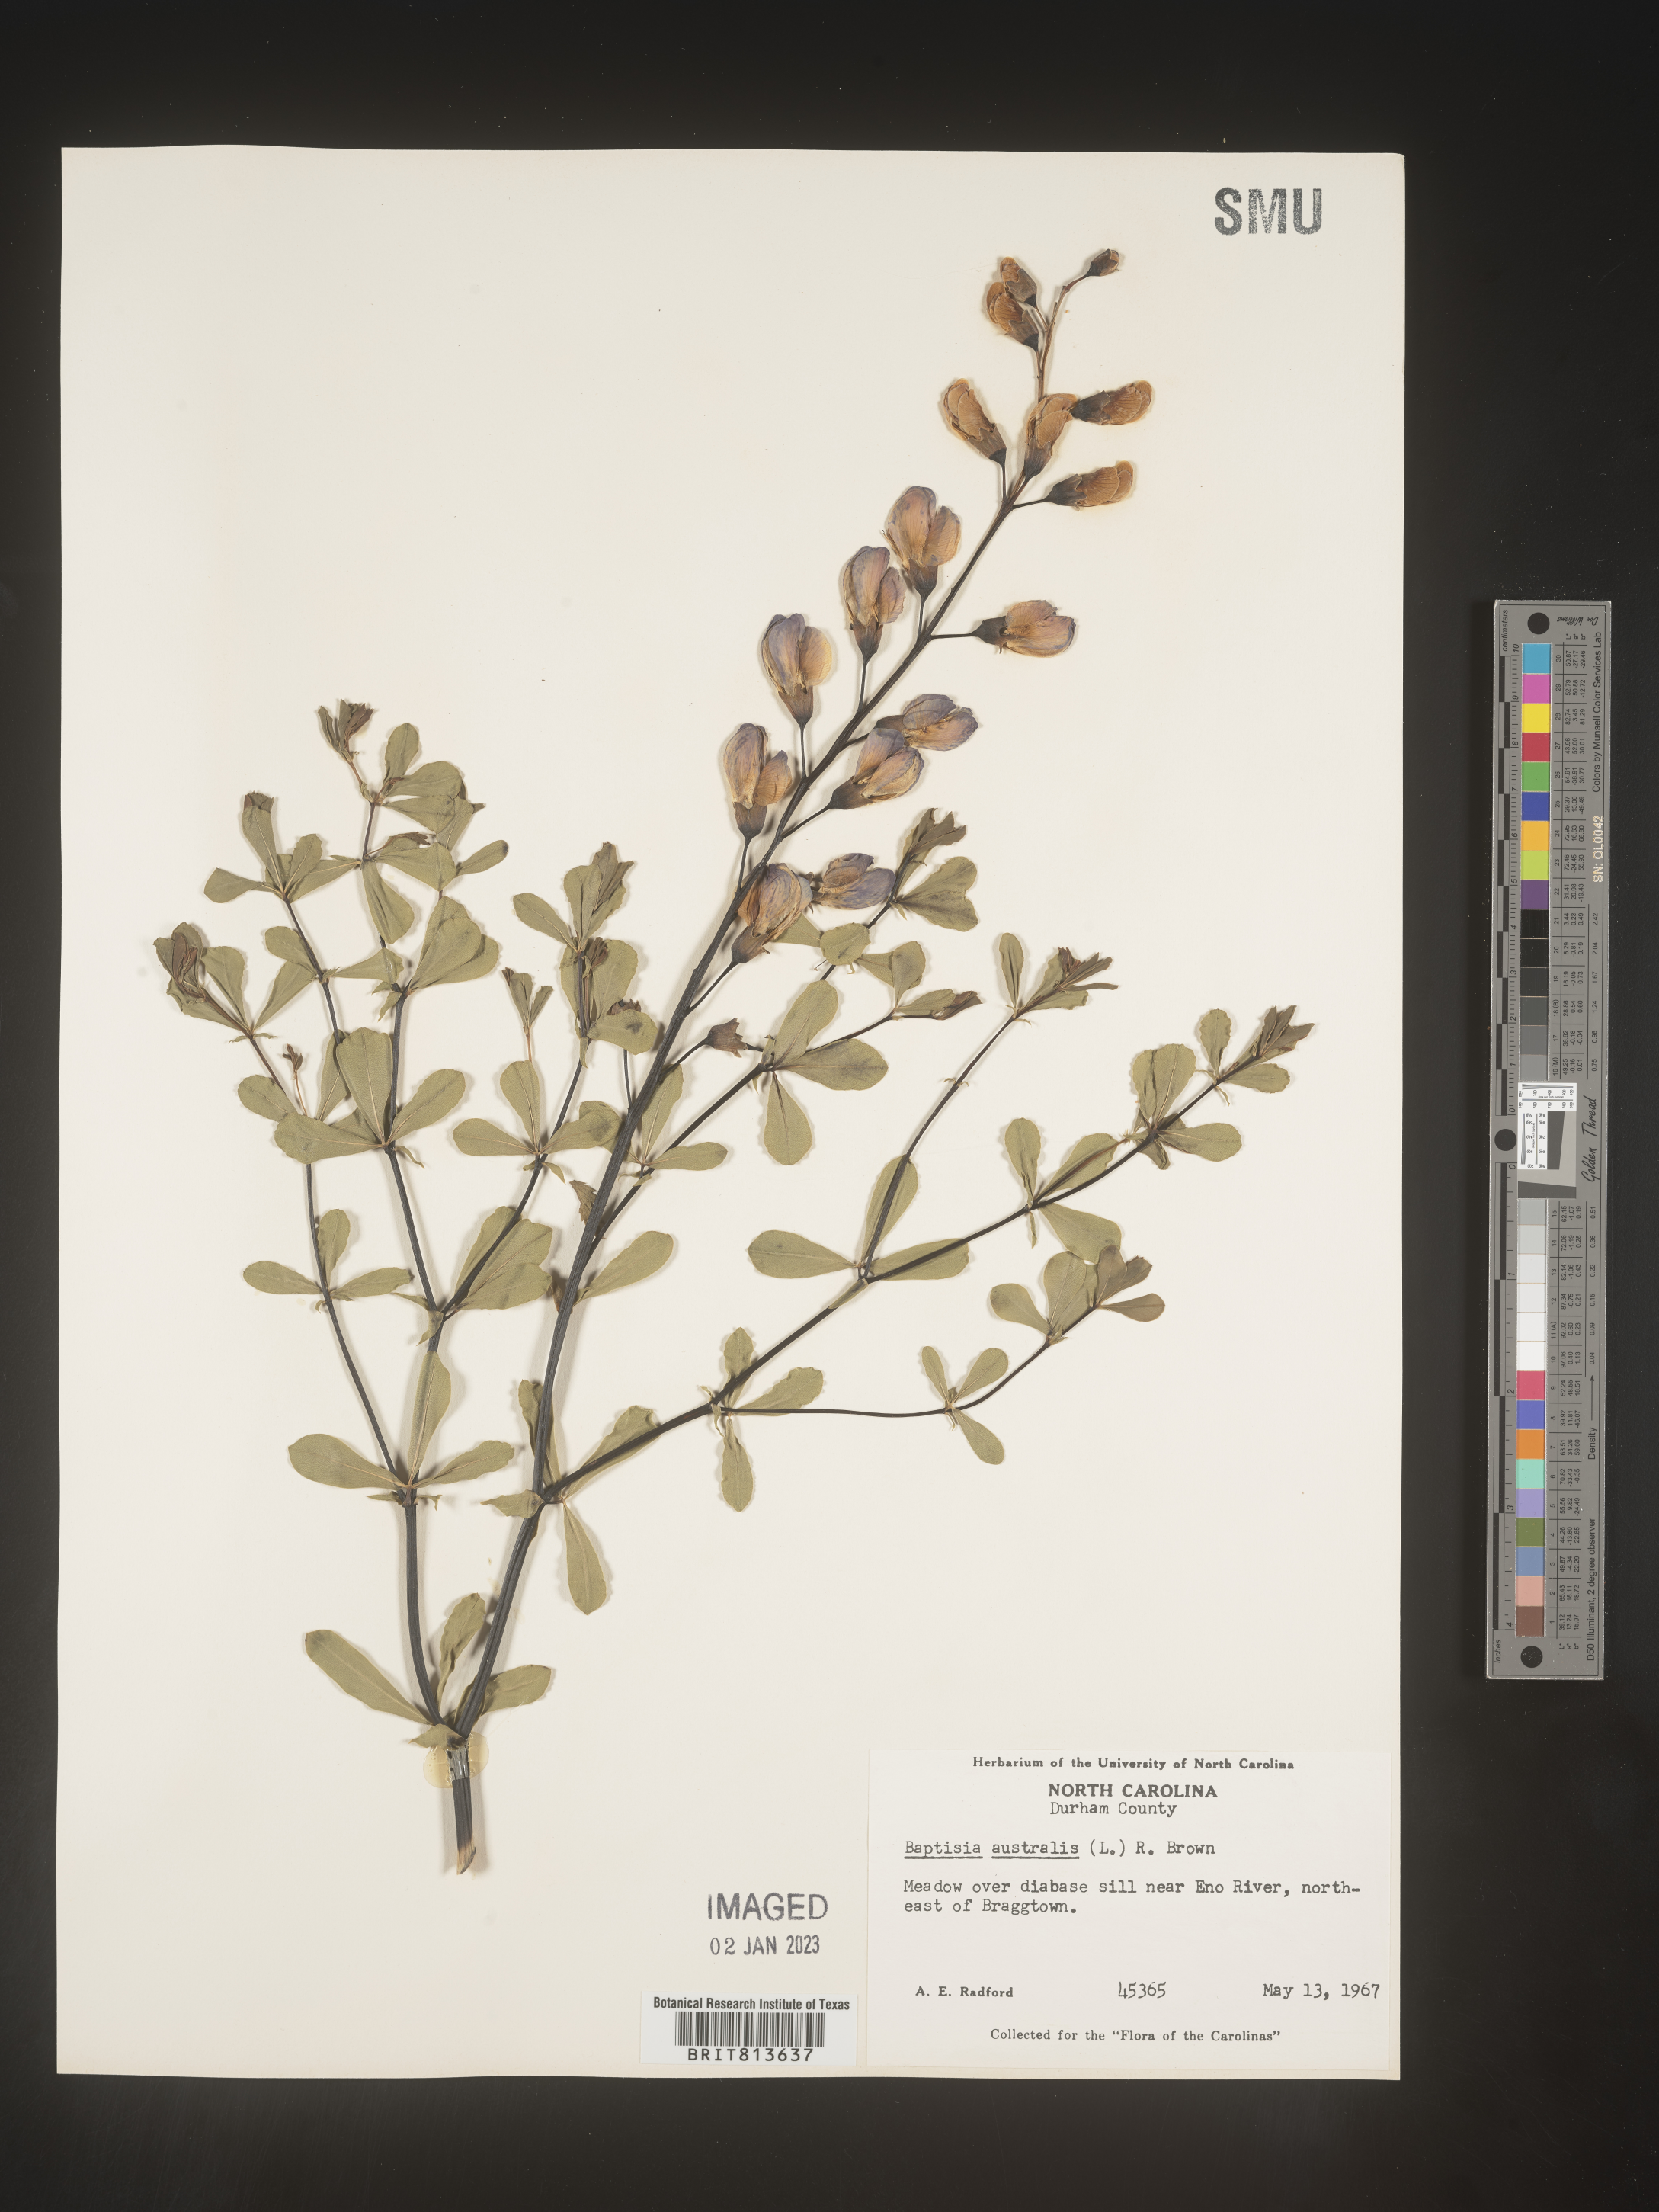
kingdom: Plantae
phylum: Tracheophyta
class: Magnoliopsida
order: Fabales
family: Fabaceae
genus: Baptisia
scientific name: Baptisia australis
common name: Blue false indigo
